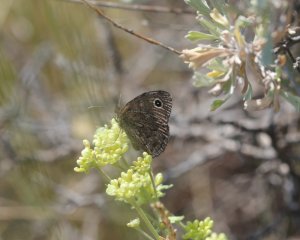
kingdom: Animalia
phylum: Arthropoda
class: Insecta
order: Lepidoptera
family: Nymphalidae
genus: Cercyonis
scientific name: Cercyonis oetus
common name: Small Wood-Nymph
